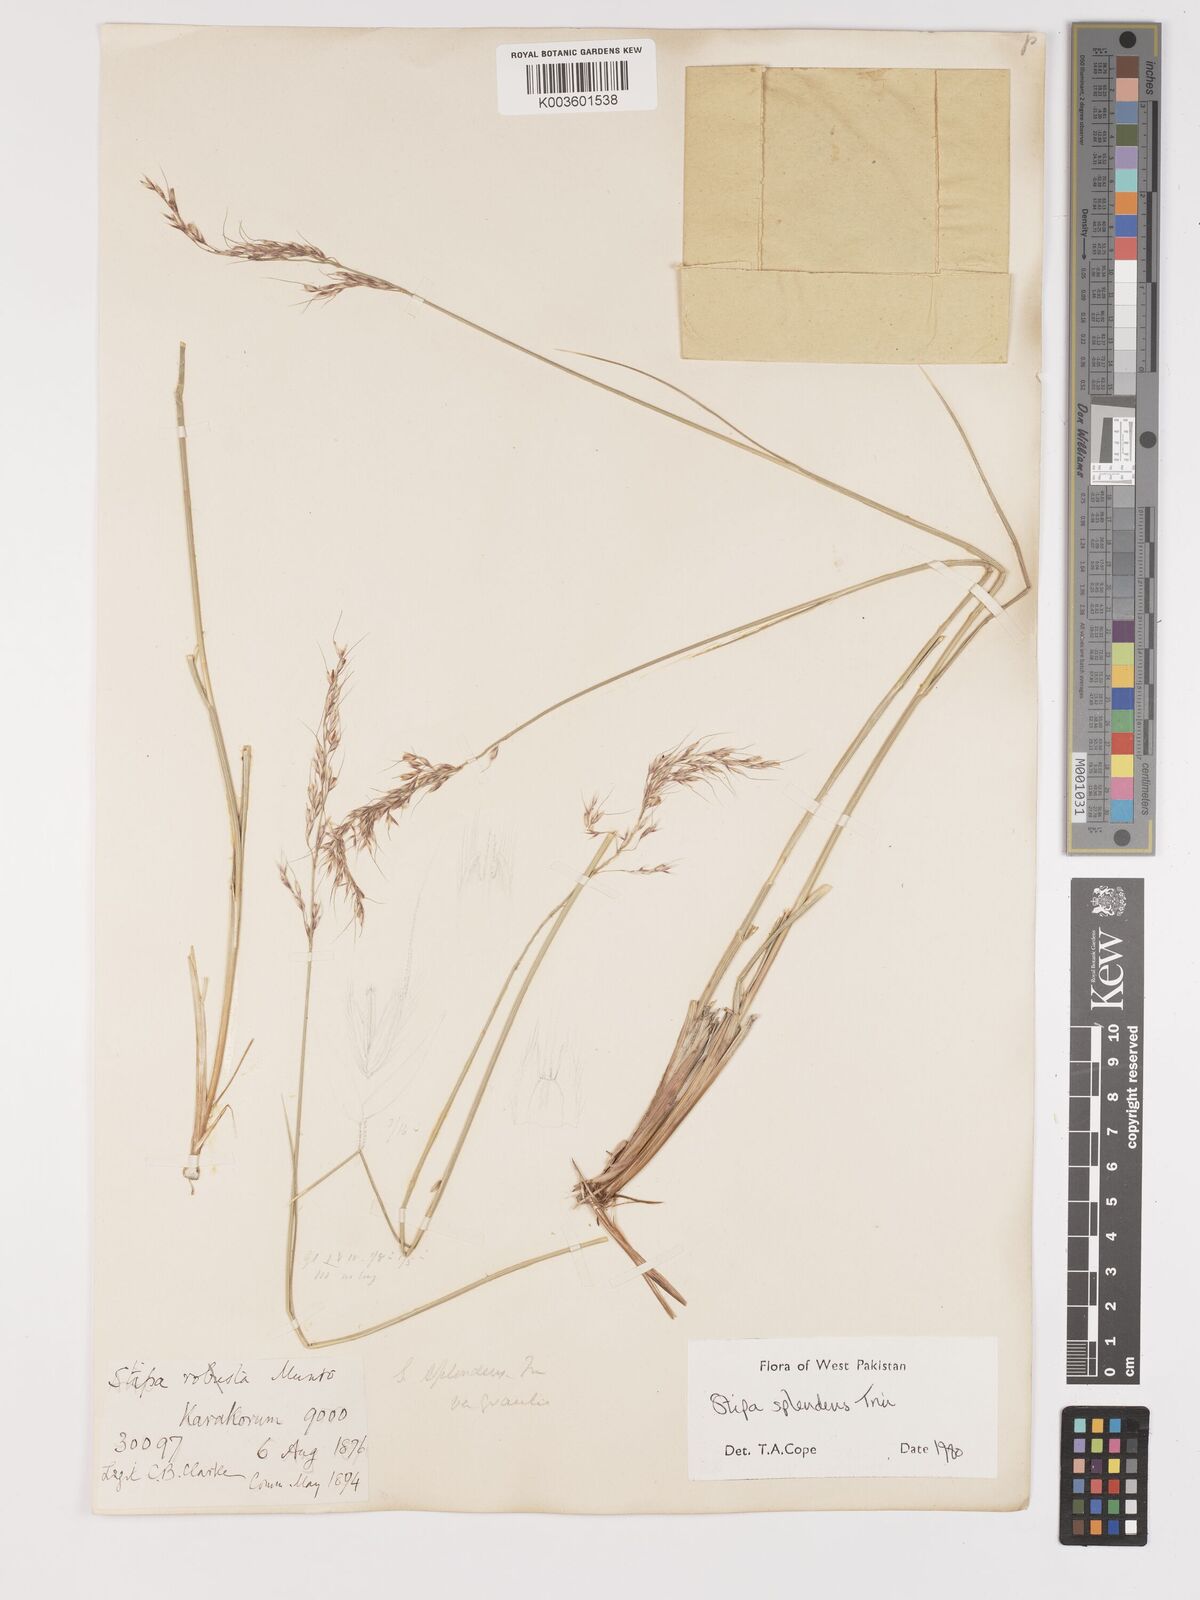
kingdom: Plantae
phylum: Tracheophyta
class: Liliopsida
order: Poales
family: Poaceae
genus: Neotrinia
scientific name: Neotrinia splendens
